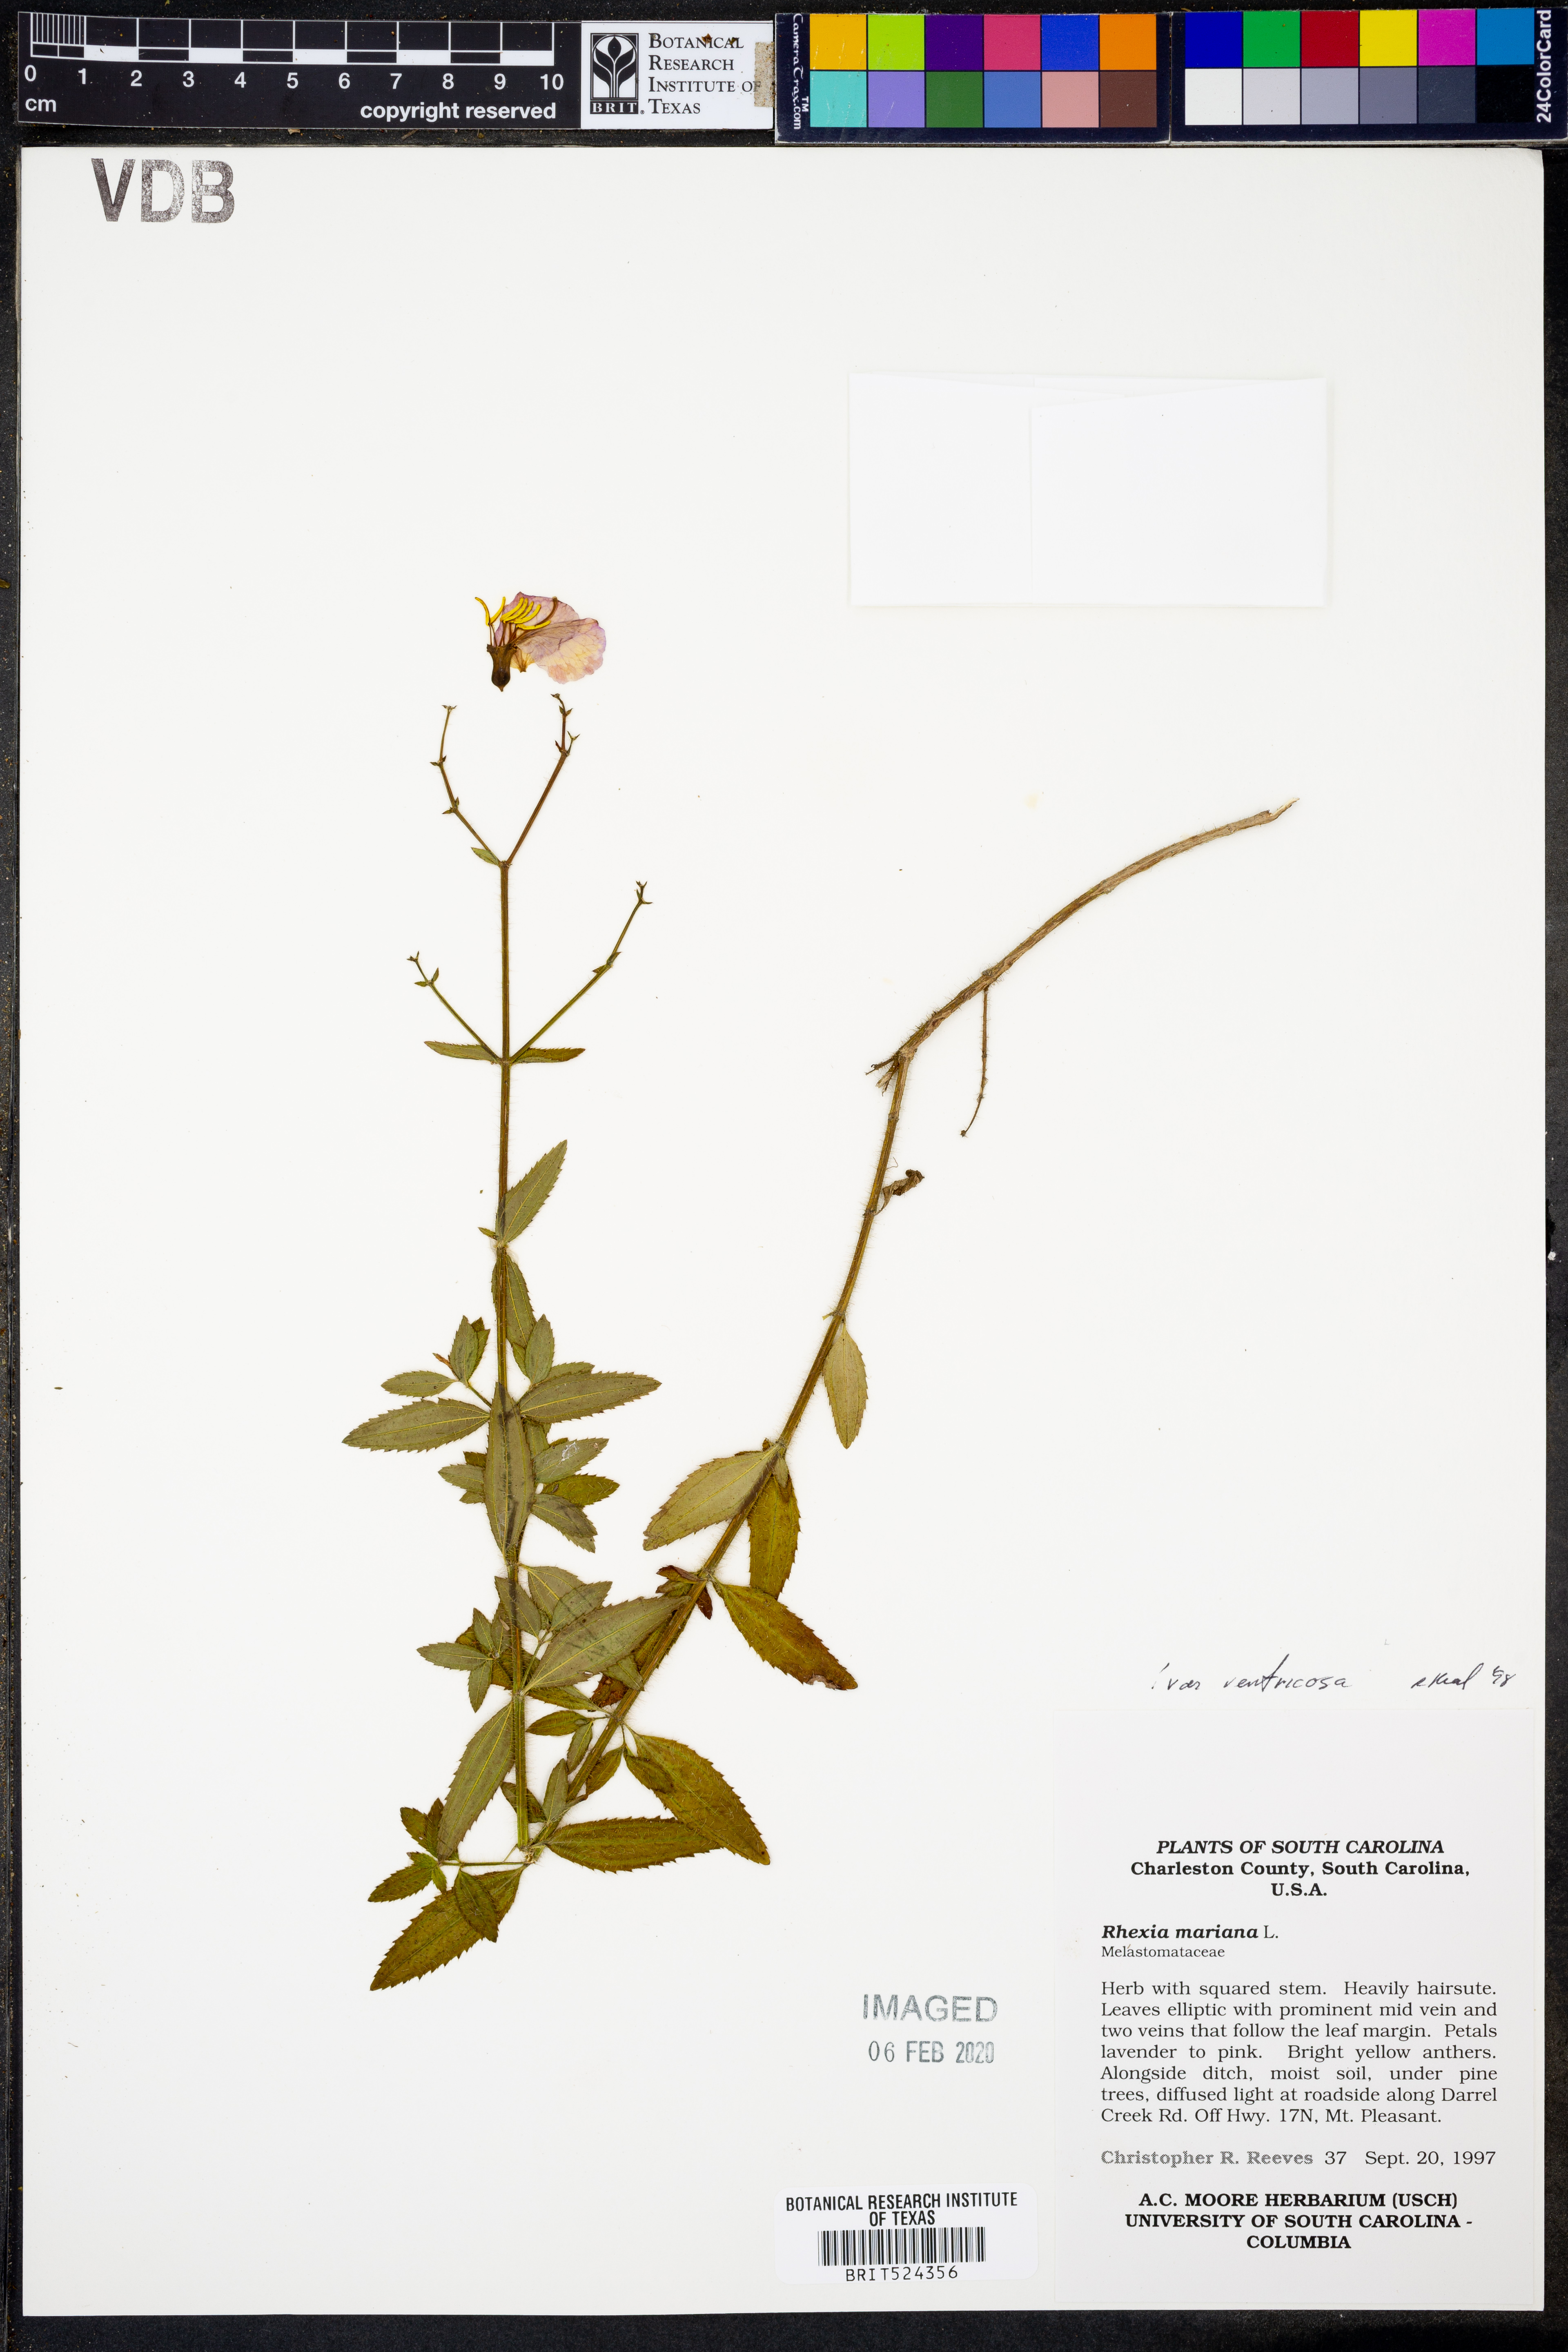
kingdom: Plantae
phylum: Tracheophyta
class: Magnoliopsida
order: Myrtales
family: Melastomataceae
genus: Rhexia
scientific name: Rhexia ventricosa
